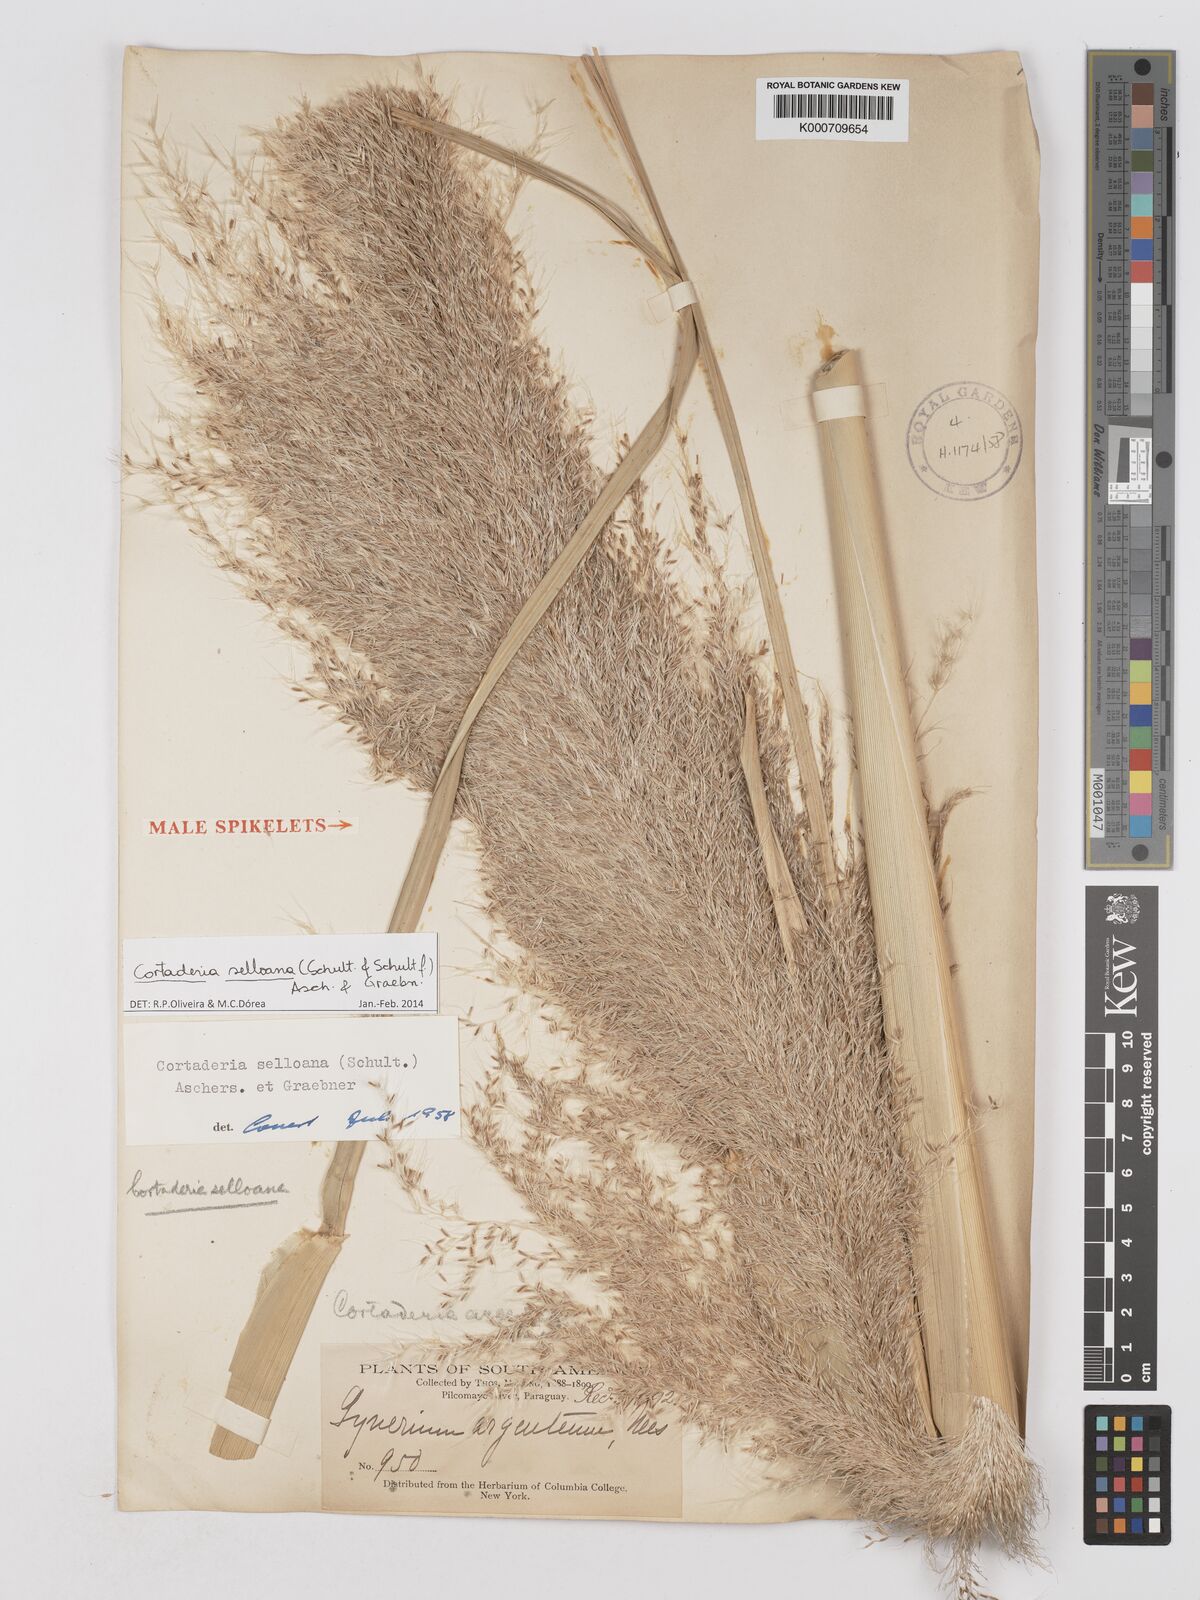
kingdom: Plantae
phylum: Tracheophyta
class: Liliopsida
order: Poales
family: Poaceae
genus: Cortaderia
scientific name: Cortaderia selloana
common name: Uruguayan pampas grass
